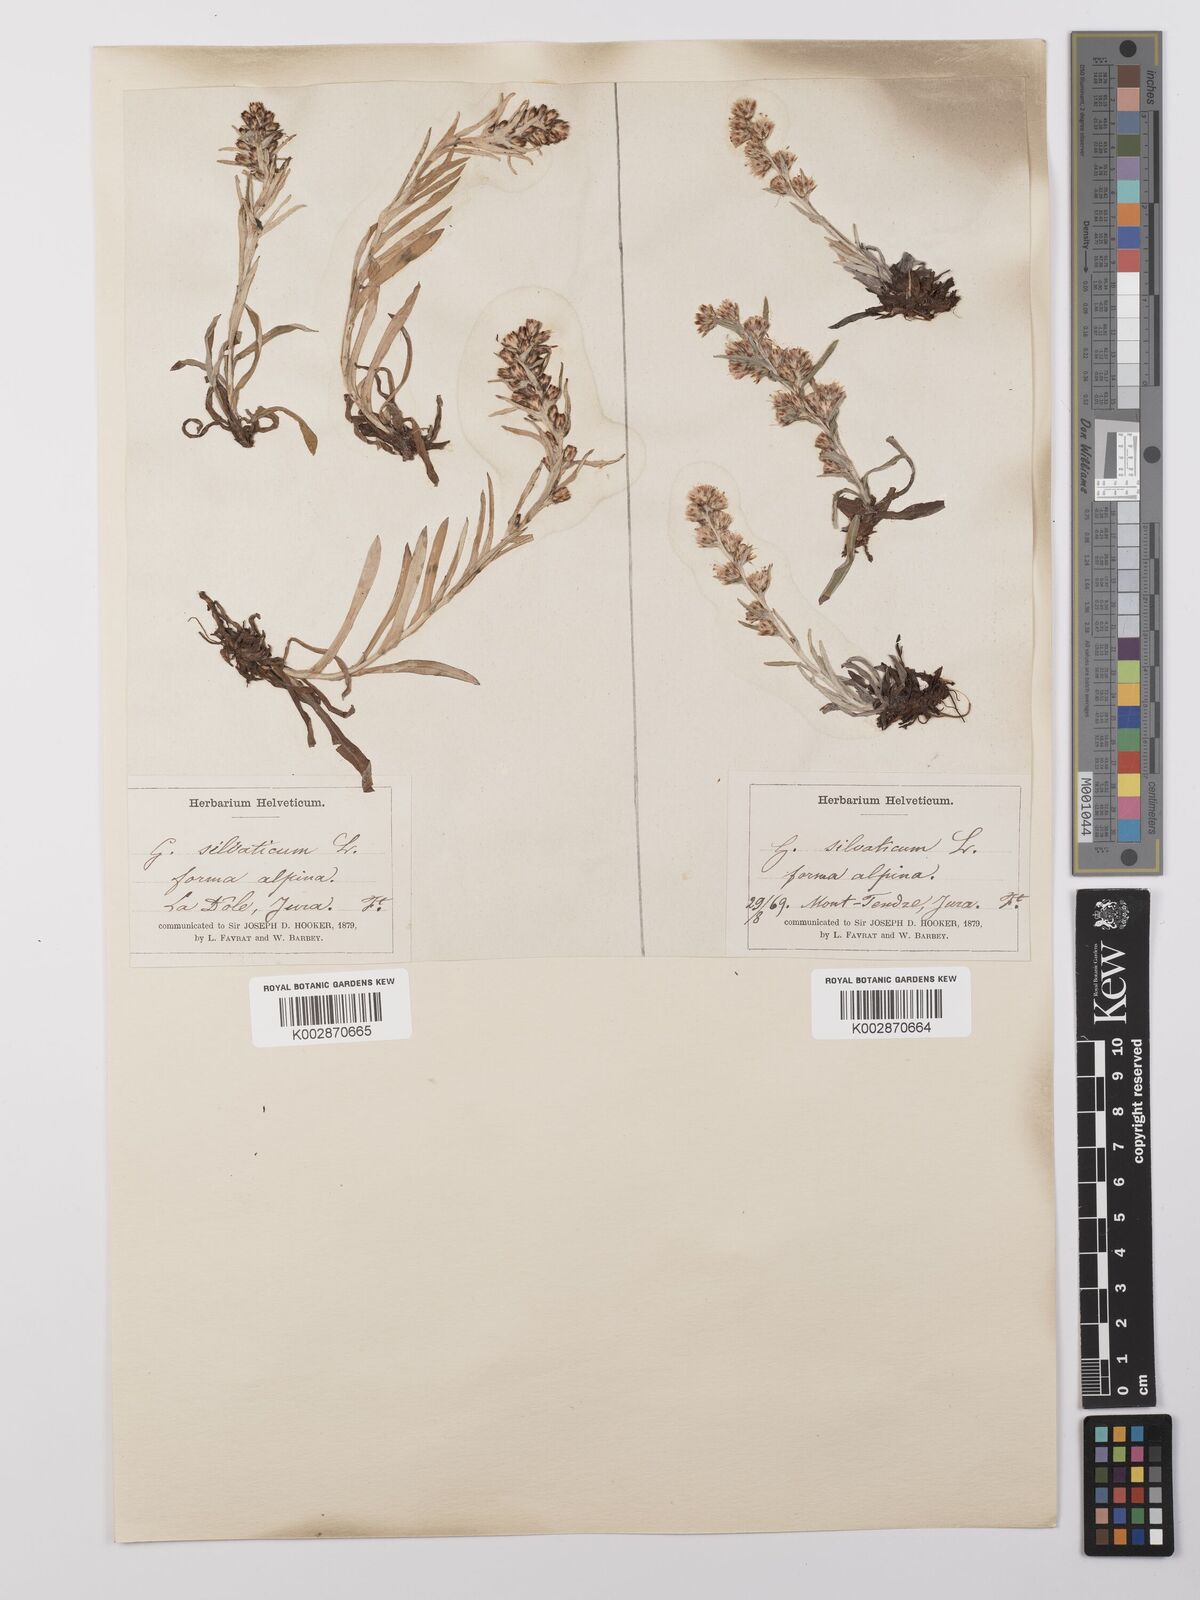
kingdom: Plantae
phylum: Tracheophyta
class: Magnoliopsida
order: Asterales
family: Asteraceae
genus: Omalotheca
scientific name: Omalotheca sylvatica
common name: Heath cudweed
